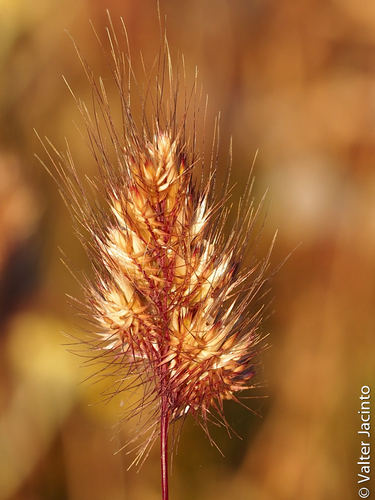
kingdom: Plantae
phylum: Tracheophyta
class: Liliopsida
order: Poales
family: Poaceae
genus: Cynosurus
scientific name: Cynosurus echinatus
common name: Rough dog's-tail
